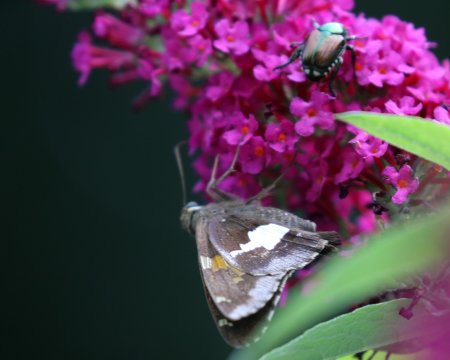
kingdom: Animalia
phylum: Arthropoda
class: Insecta
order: Lepidoptera
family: Hesperiidae
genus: Epargyreus
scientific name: Epargyreus clarus
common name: Silver-spotted Skipper
